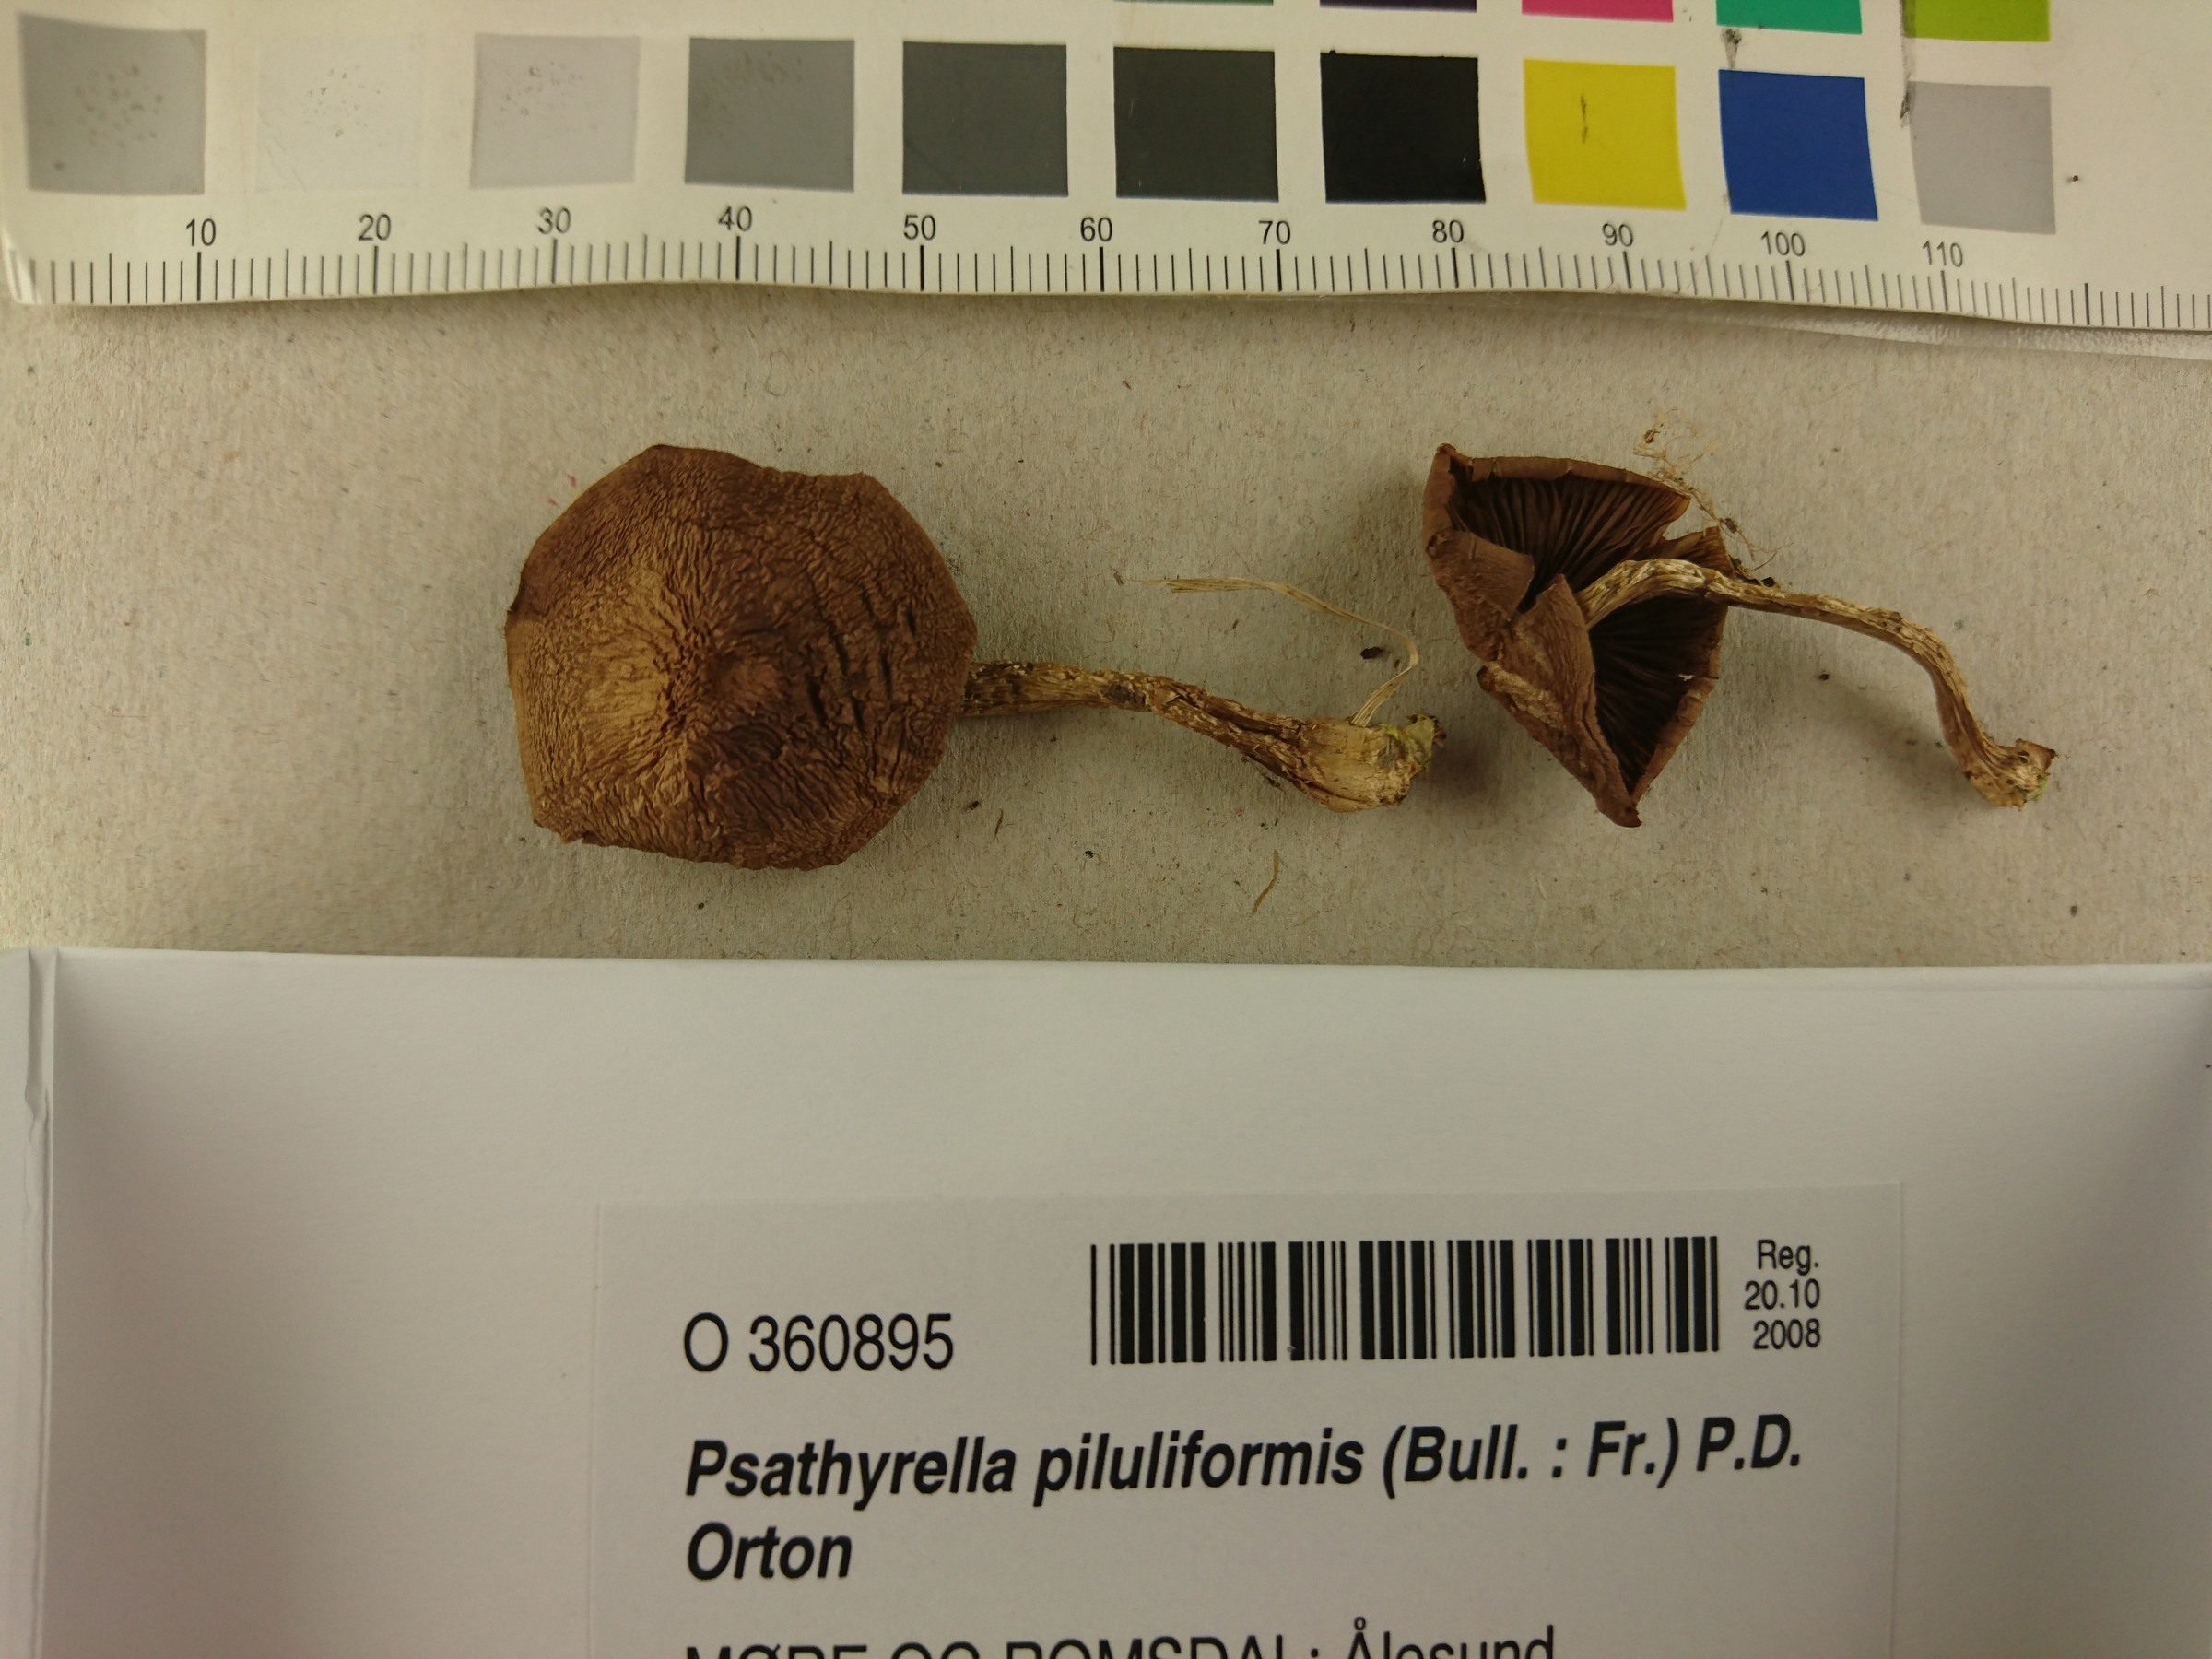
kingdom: Fungi
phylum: Basidiomycota
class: Agaricomycetes
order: Agaricales
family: Psathyrellaceae
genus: Psathyrella
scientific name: Psathyrella piluliformis
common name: Common stump brittlestem
